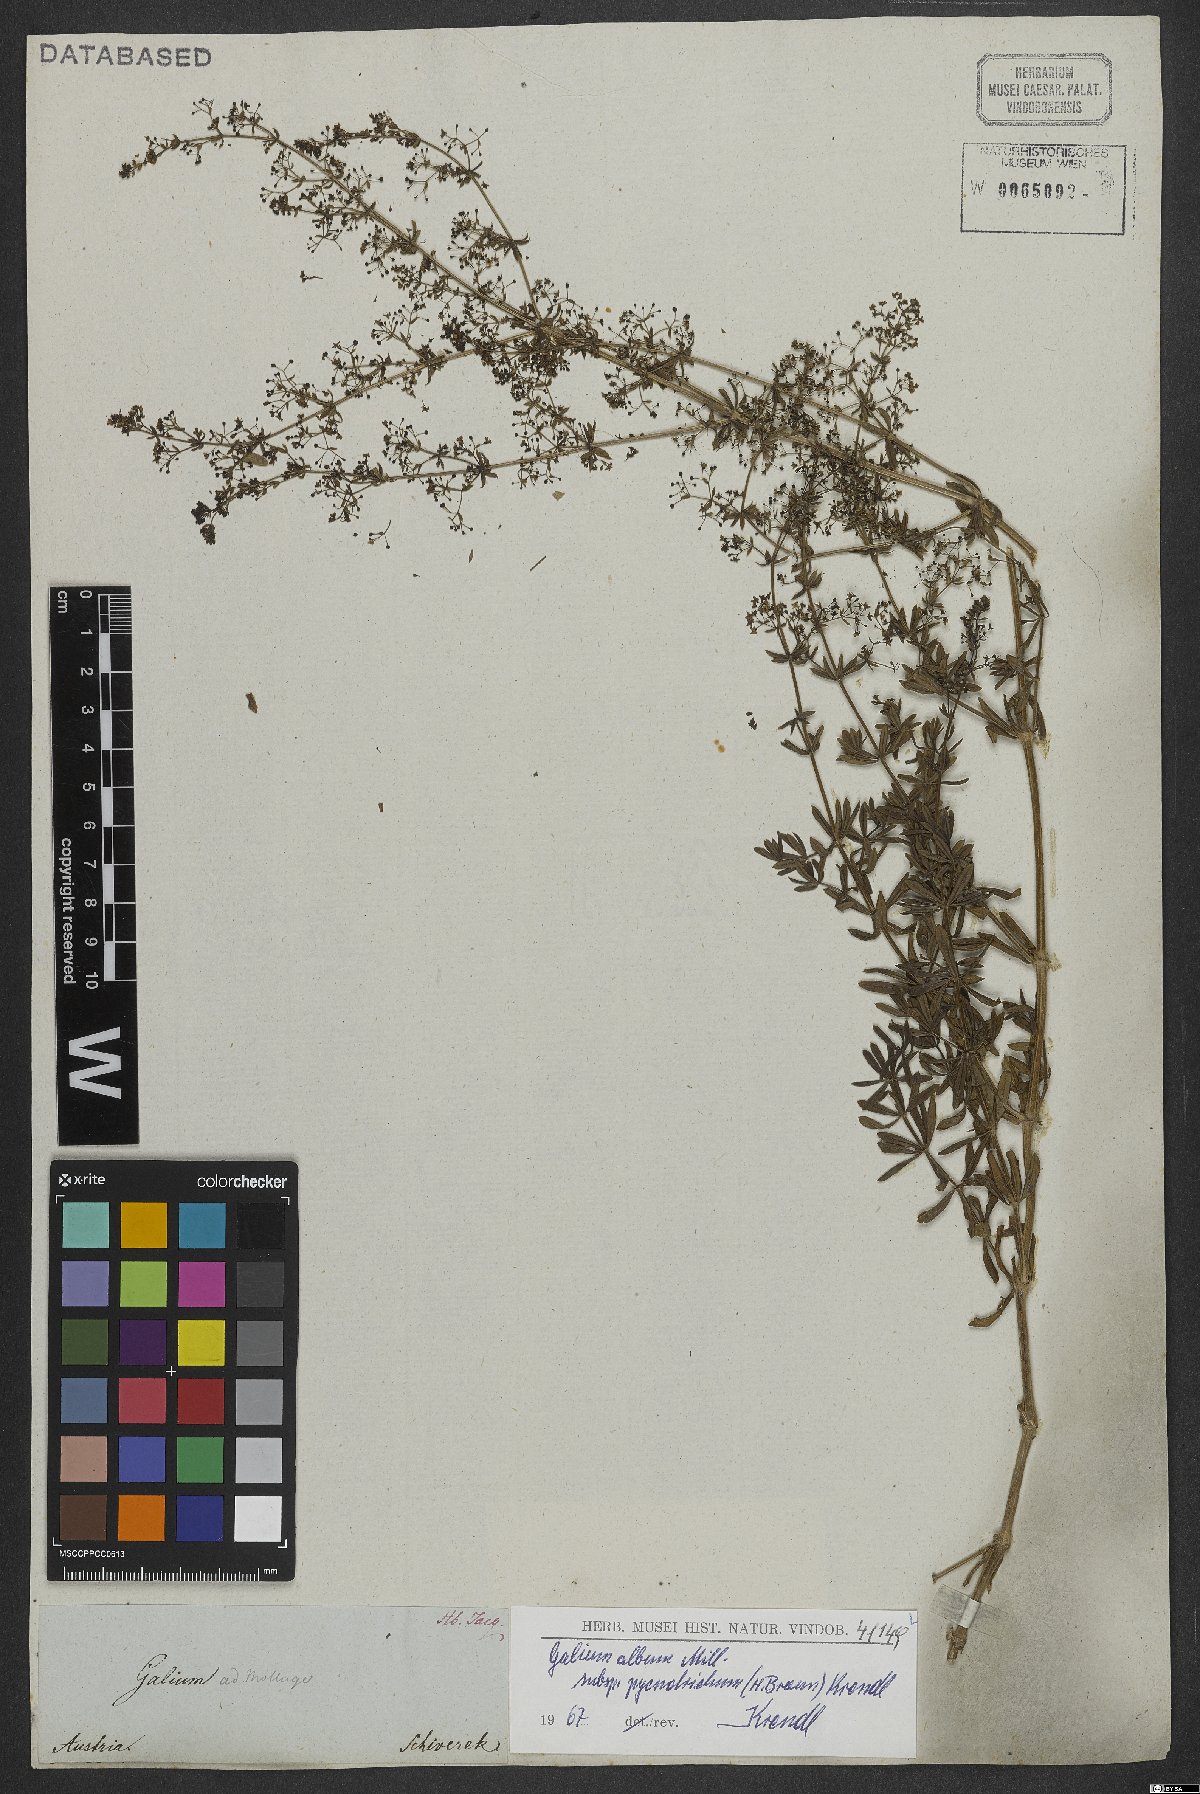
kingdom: Plantae
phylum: Tracheophyta
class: Magnoliopsida
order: Gentianales
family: Rubiaceae
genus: Galium
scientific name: Galium album
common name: White bedstraw
